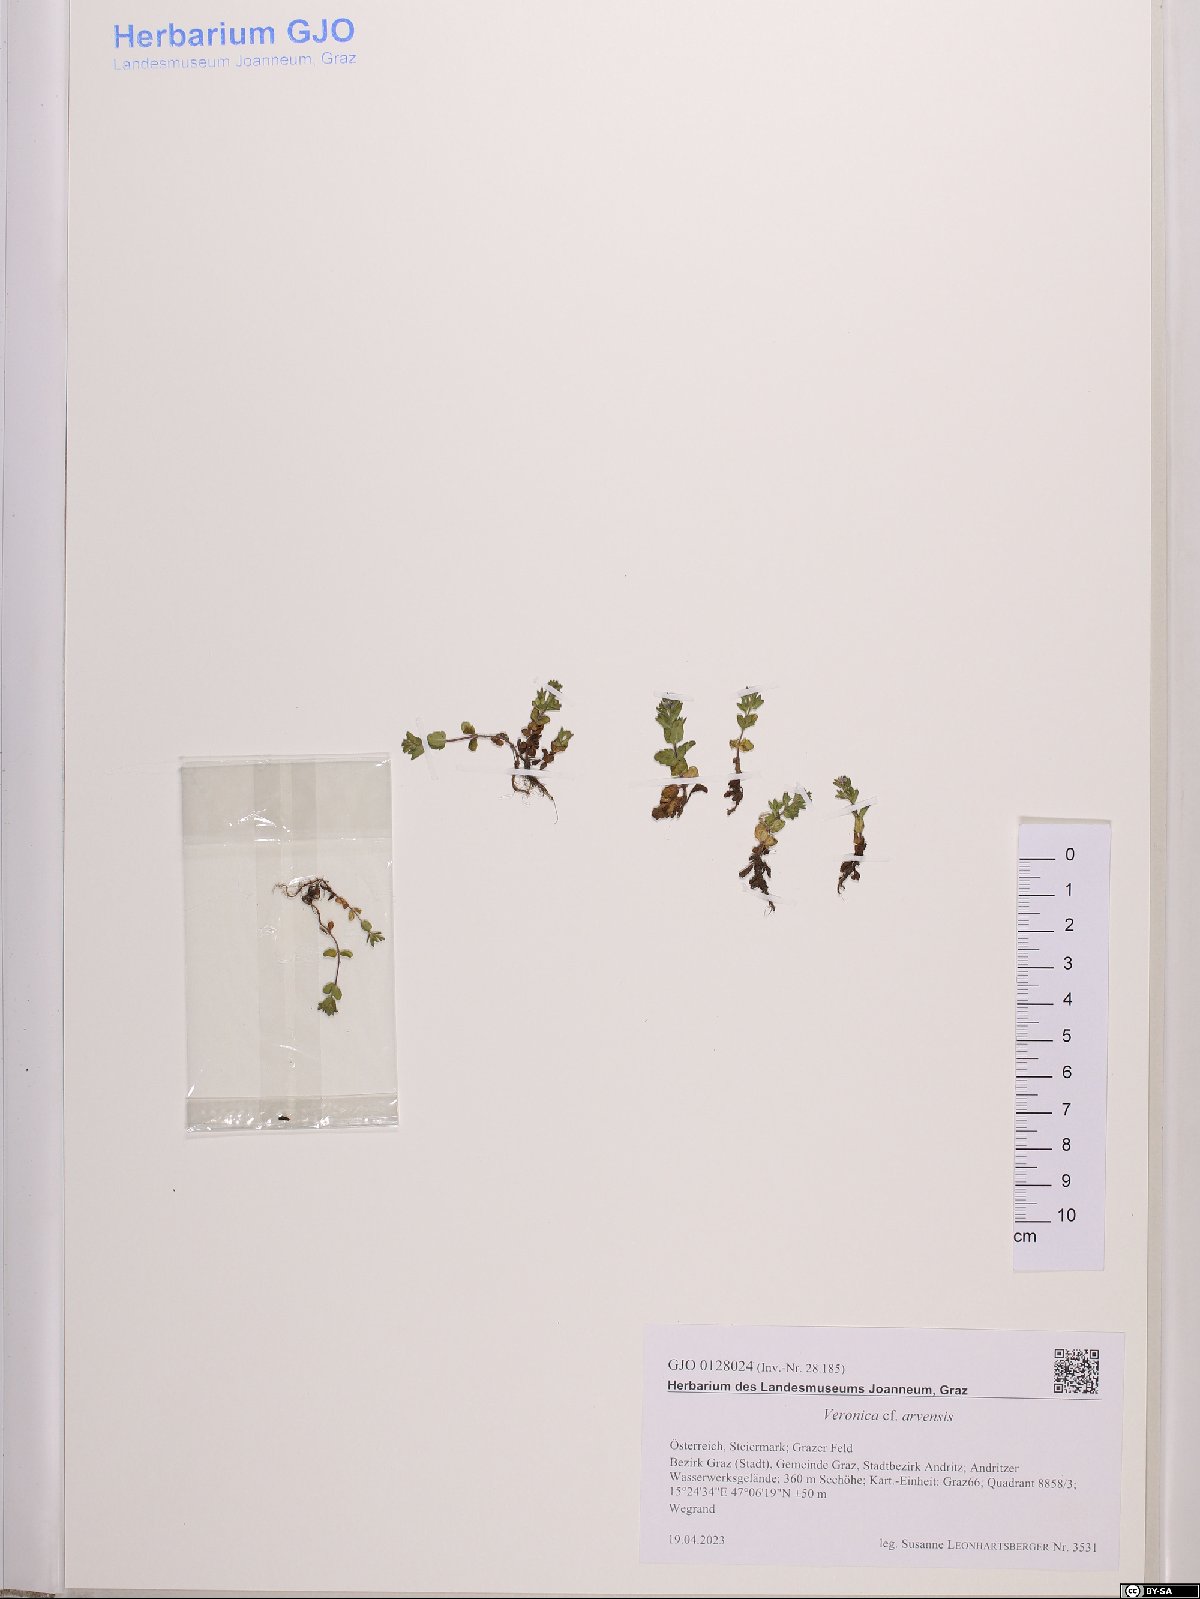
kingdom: Plantae
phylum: Tracheophyta
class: Magnoliopsida
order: Lamiales
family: Plantaginaceae
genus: Veronica
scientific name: Veronica arvensis
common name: Corn speedwell
